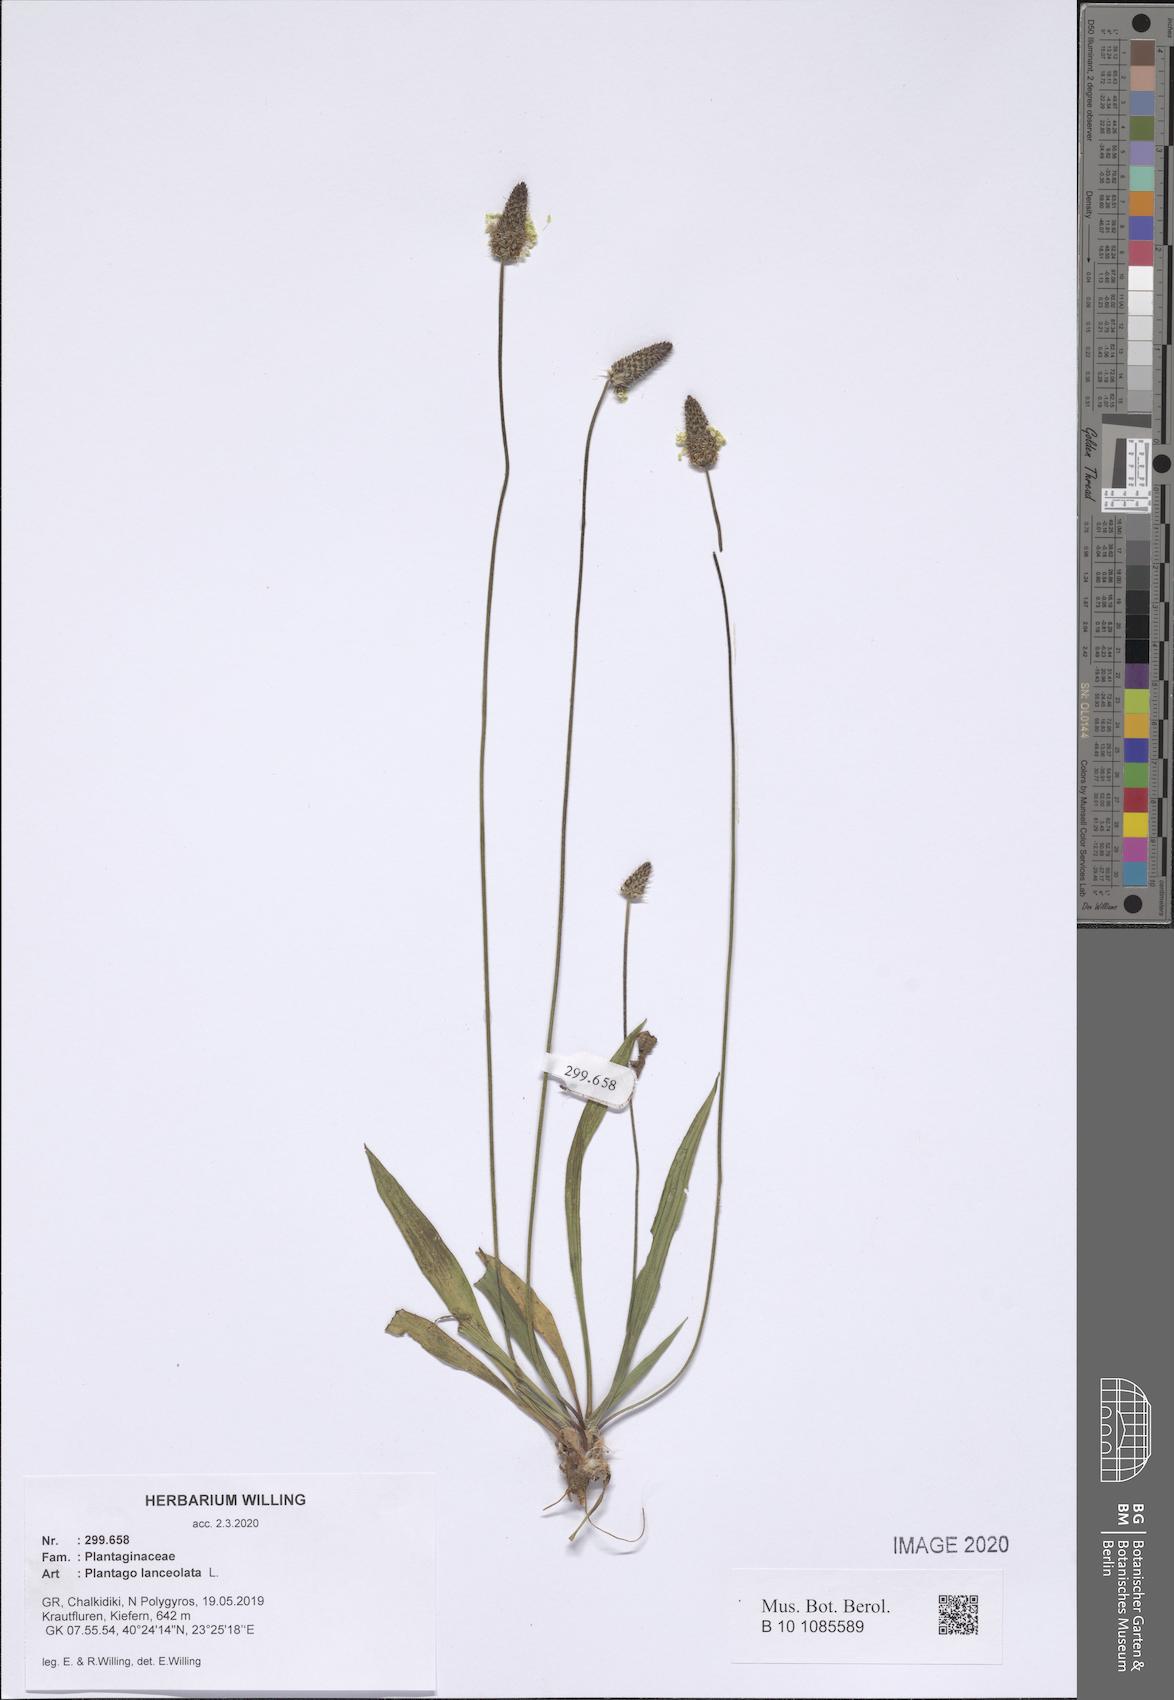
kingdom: Plantae
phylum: Tracheophyta
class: Magnoliopsida
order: Lamiales
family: Plantaginaceae
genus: Plantago
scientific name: Plantago lanceolata
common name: Ribwort plantain
